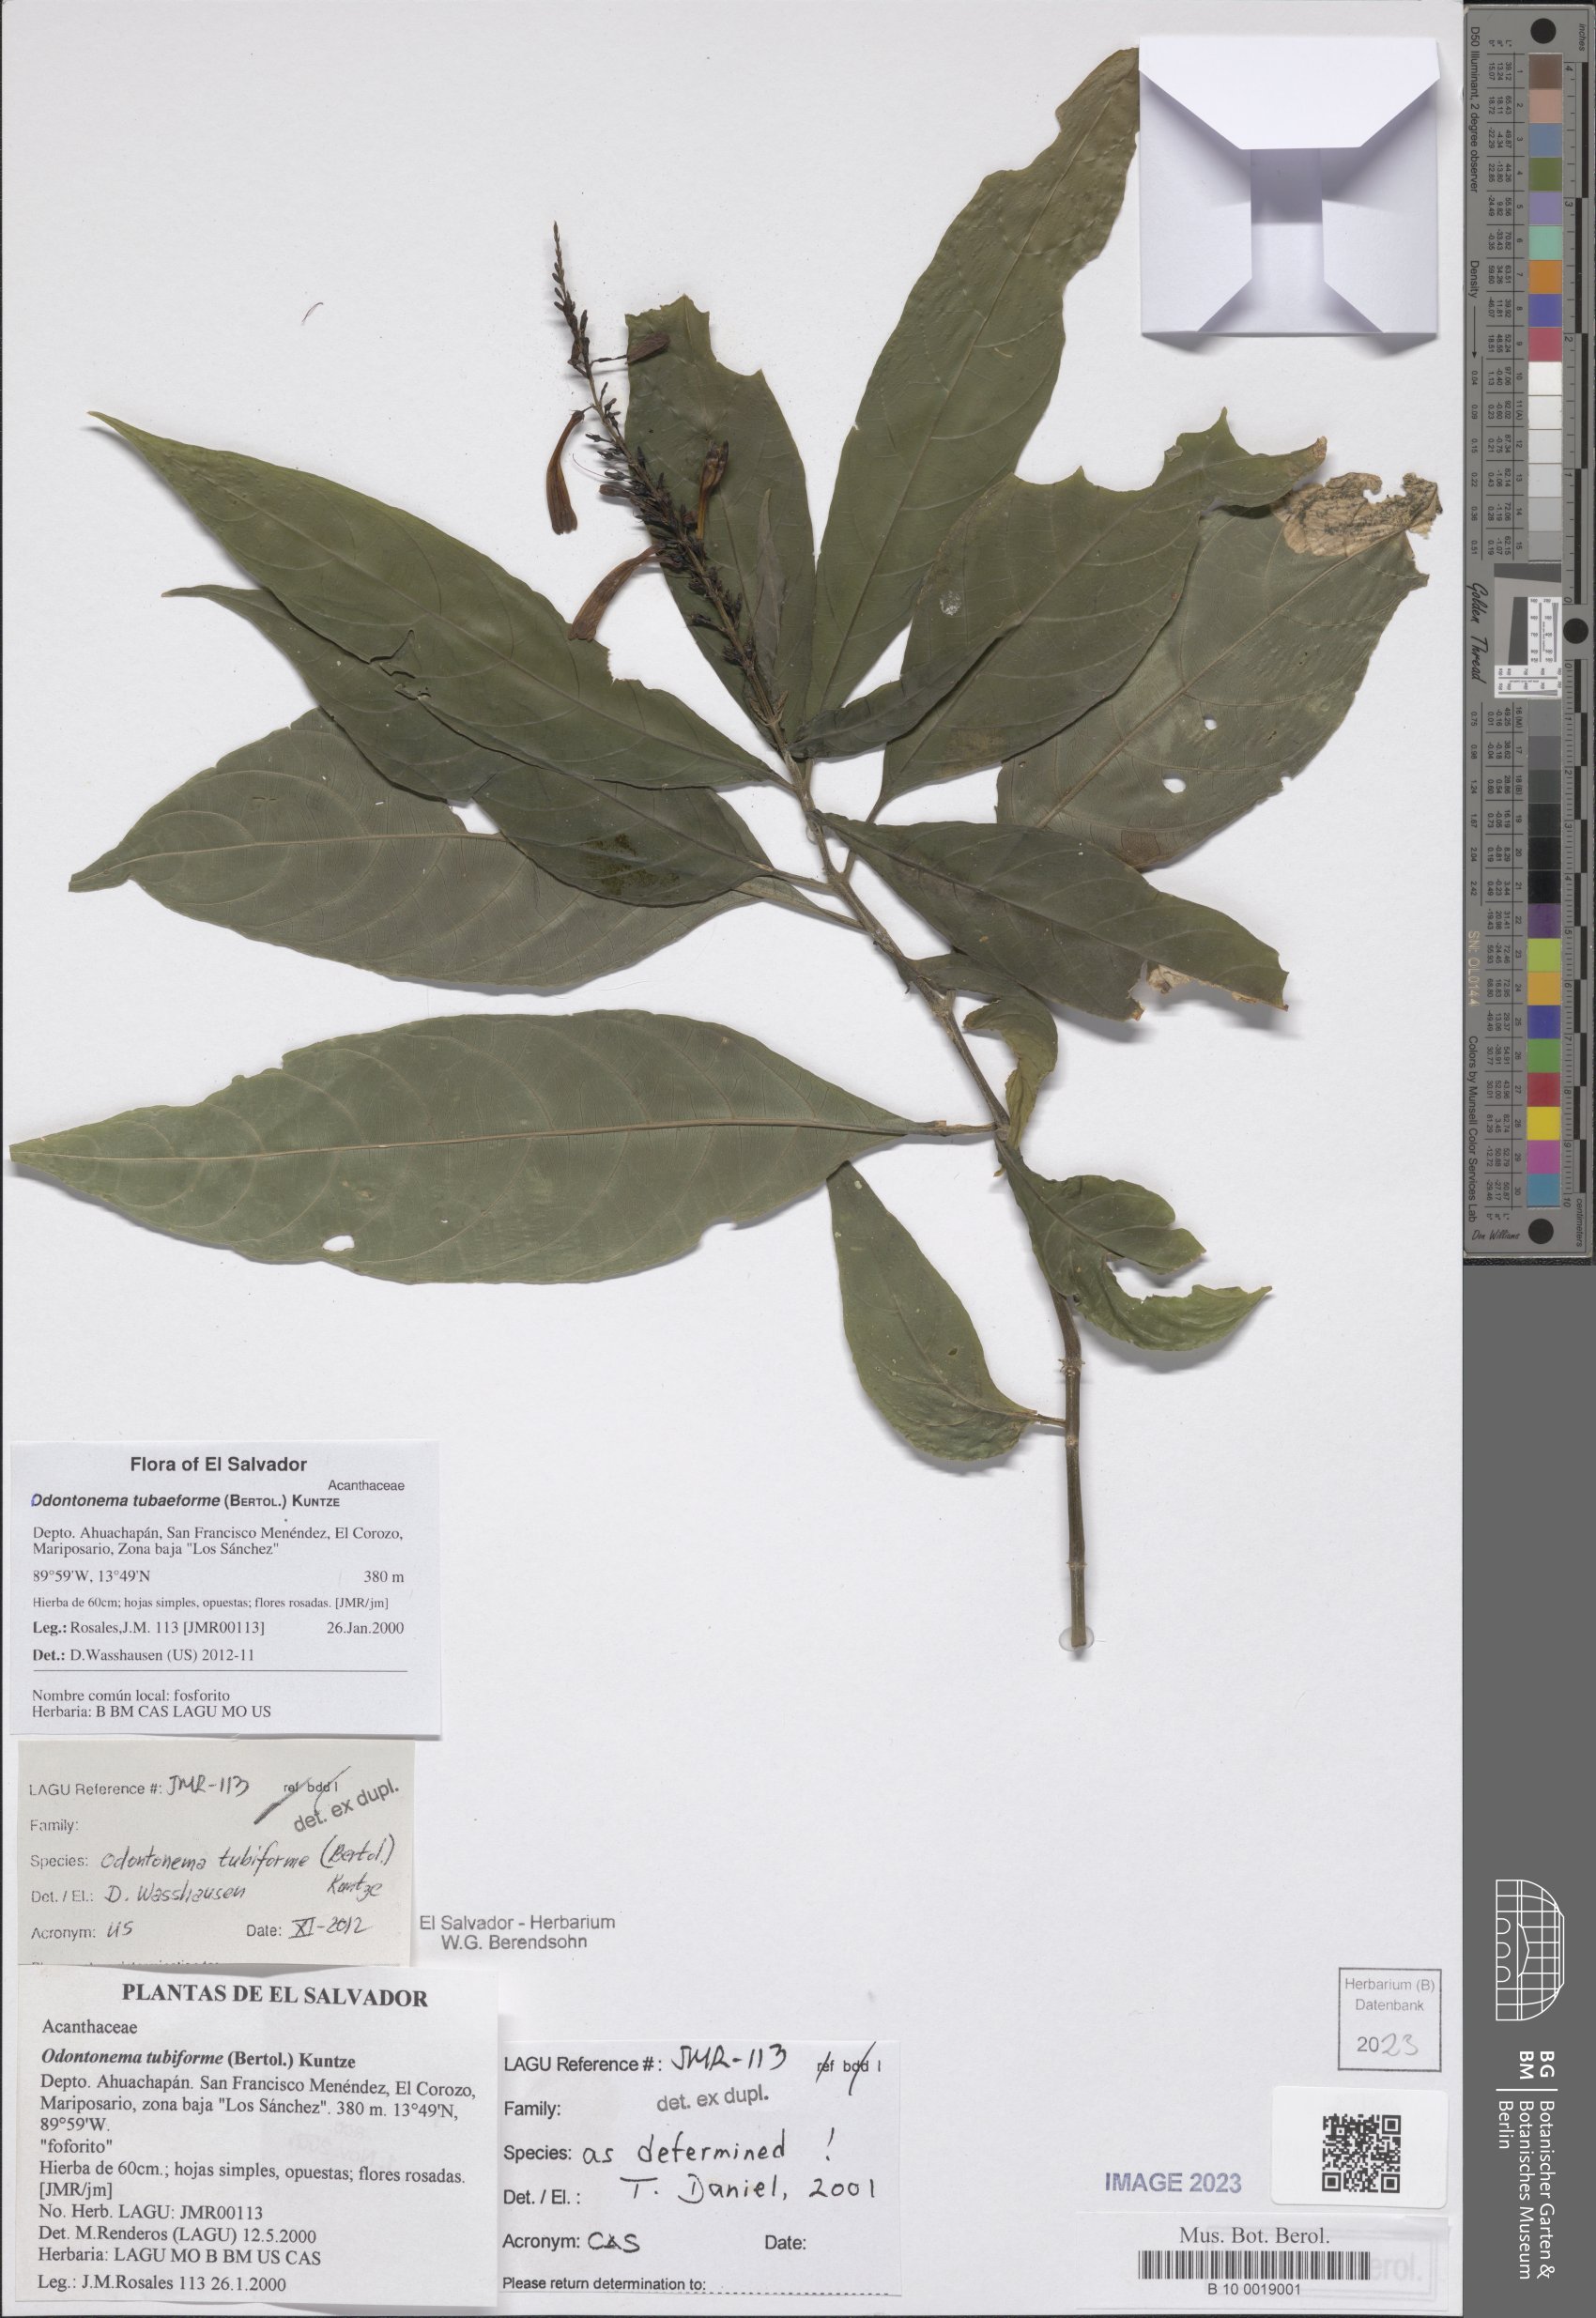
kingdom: Plantae
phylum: Tracheophyta
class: Magnoliopsida
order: Lamiales
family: Acanthaceae
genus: Odontonema
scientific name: Odontonema tubaeforme
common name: Firespike
